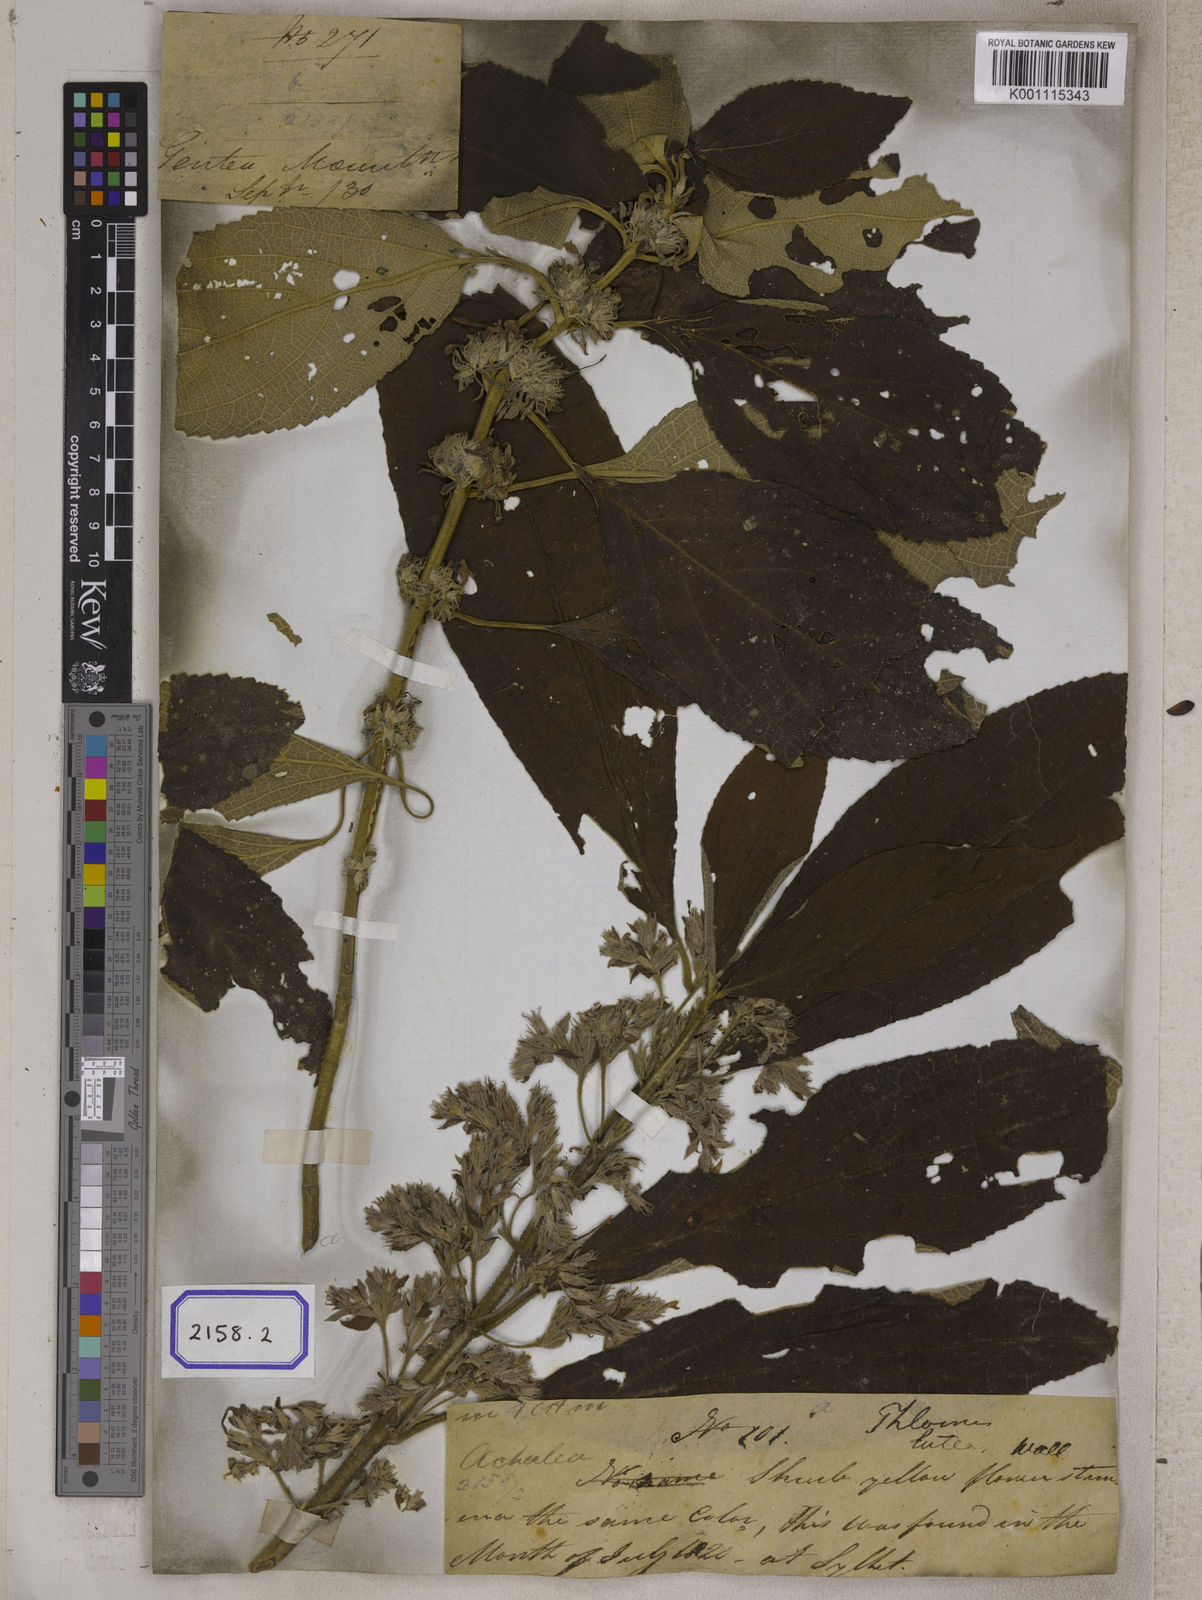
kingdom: Plantae
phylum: Tracheophyta
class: Magnoliopsida
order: Lamiales
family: Lamiaceae
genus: Gomphostemma
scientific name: Gomphostemma
